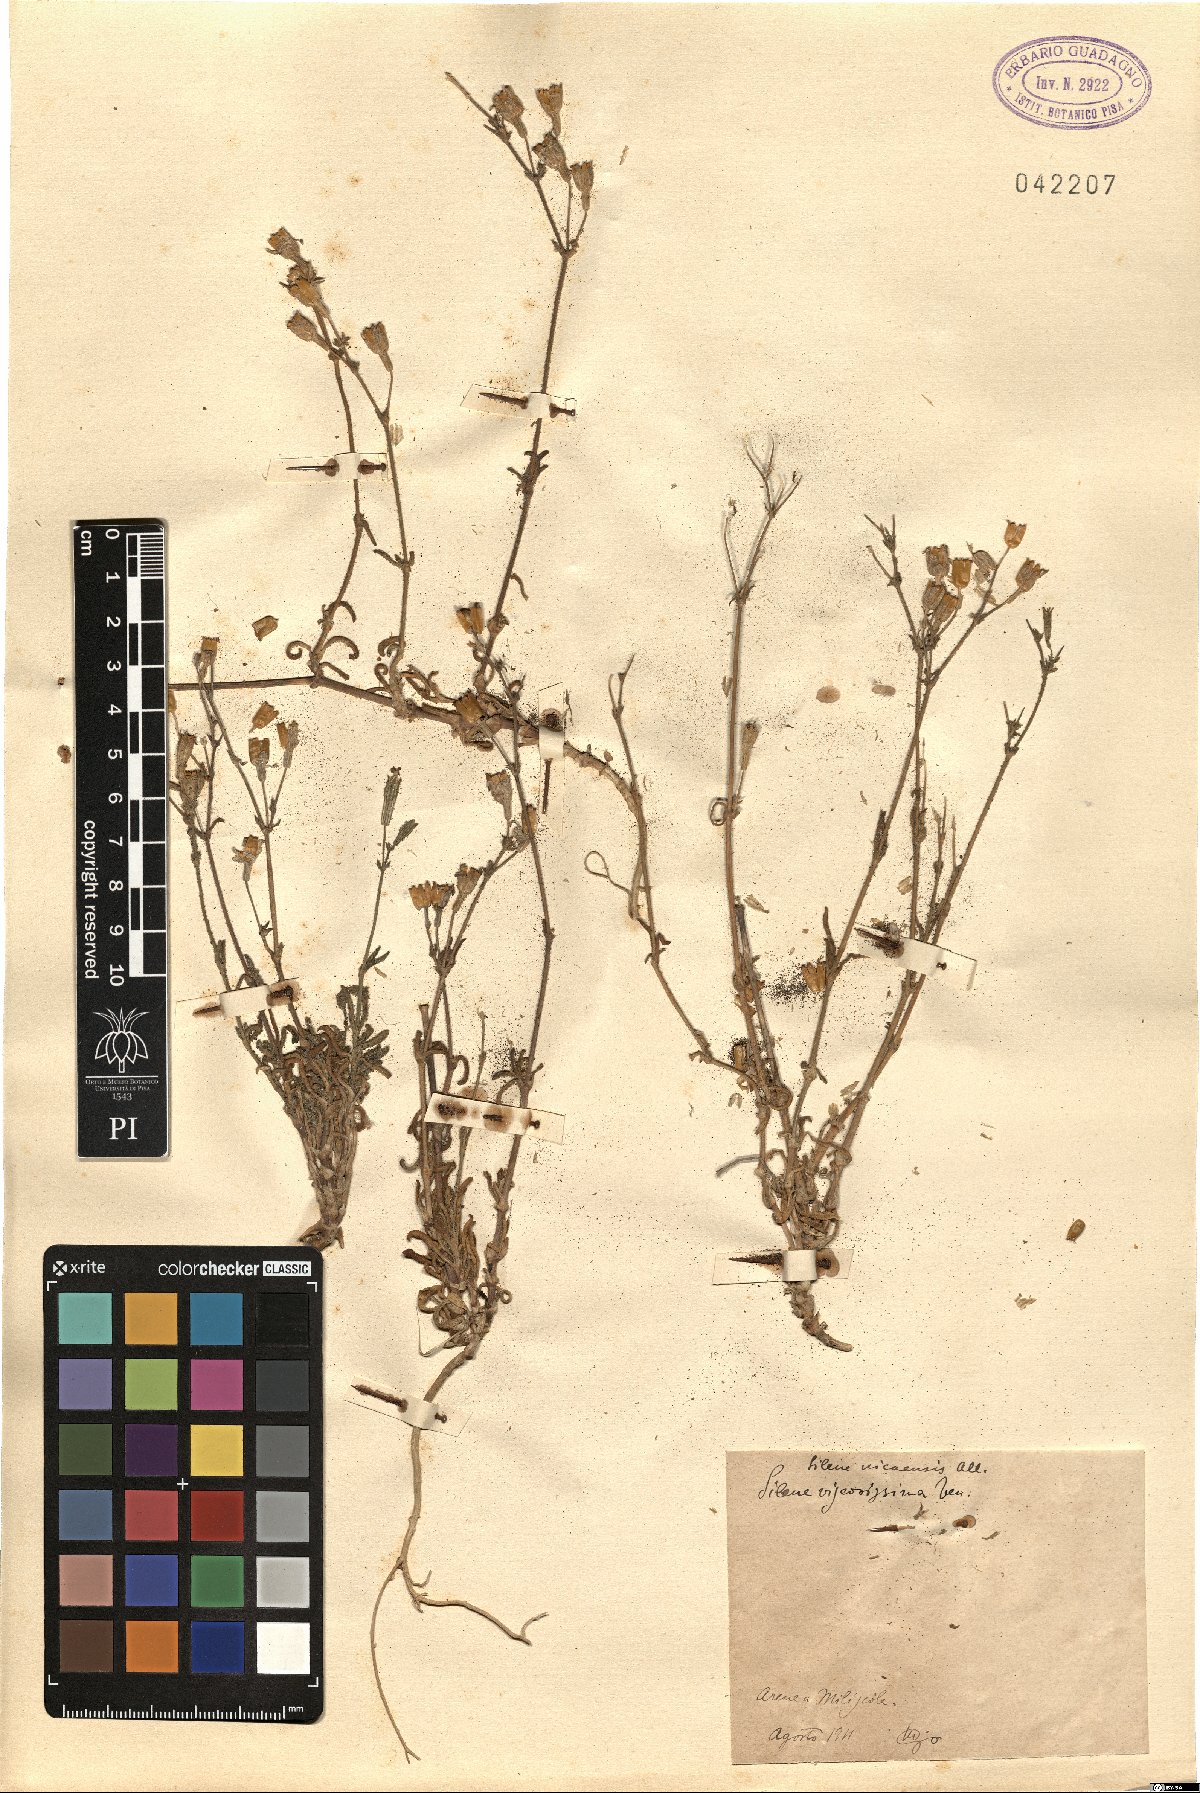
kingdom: Plantae
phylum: Tracheophyta
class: Magnoliopsida
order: Caryophyllales
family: Caryophyllaceae
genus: Silene
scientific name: Silene nicaeensis
